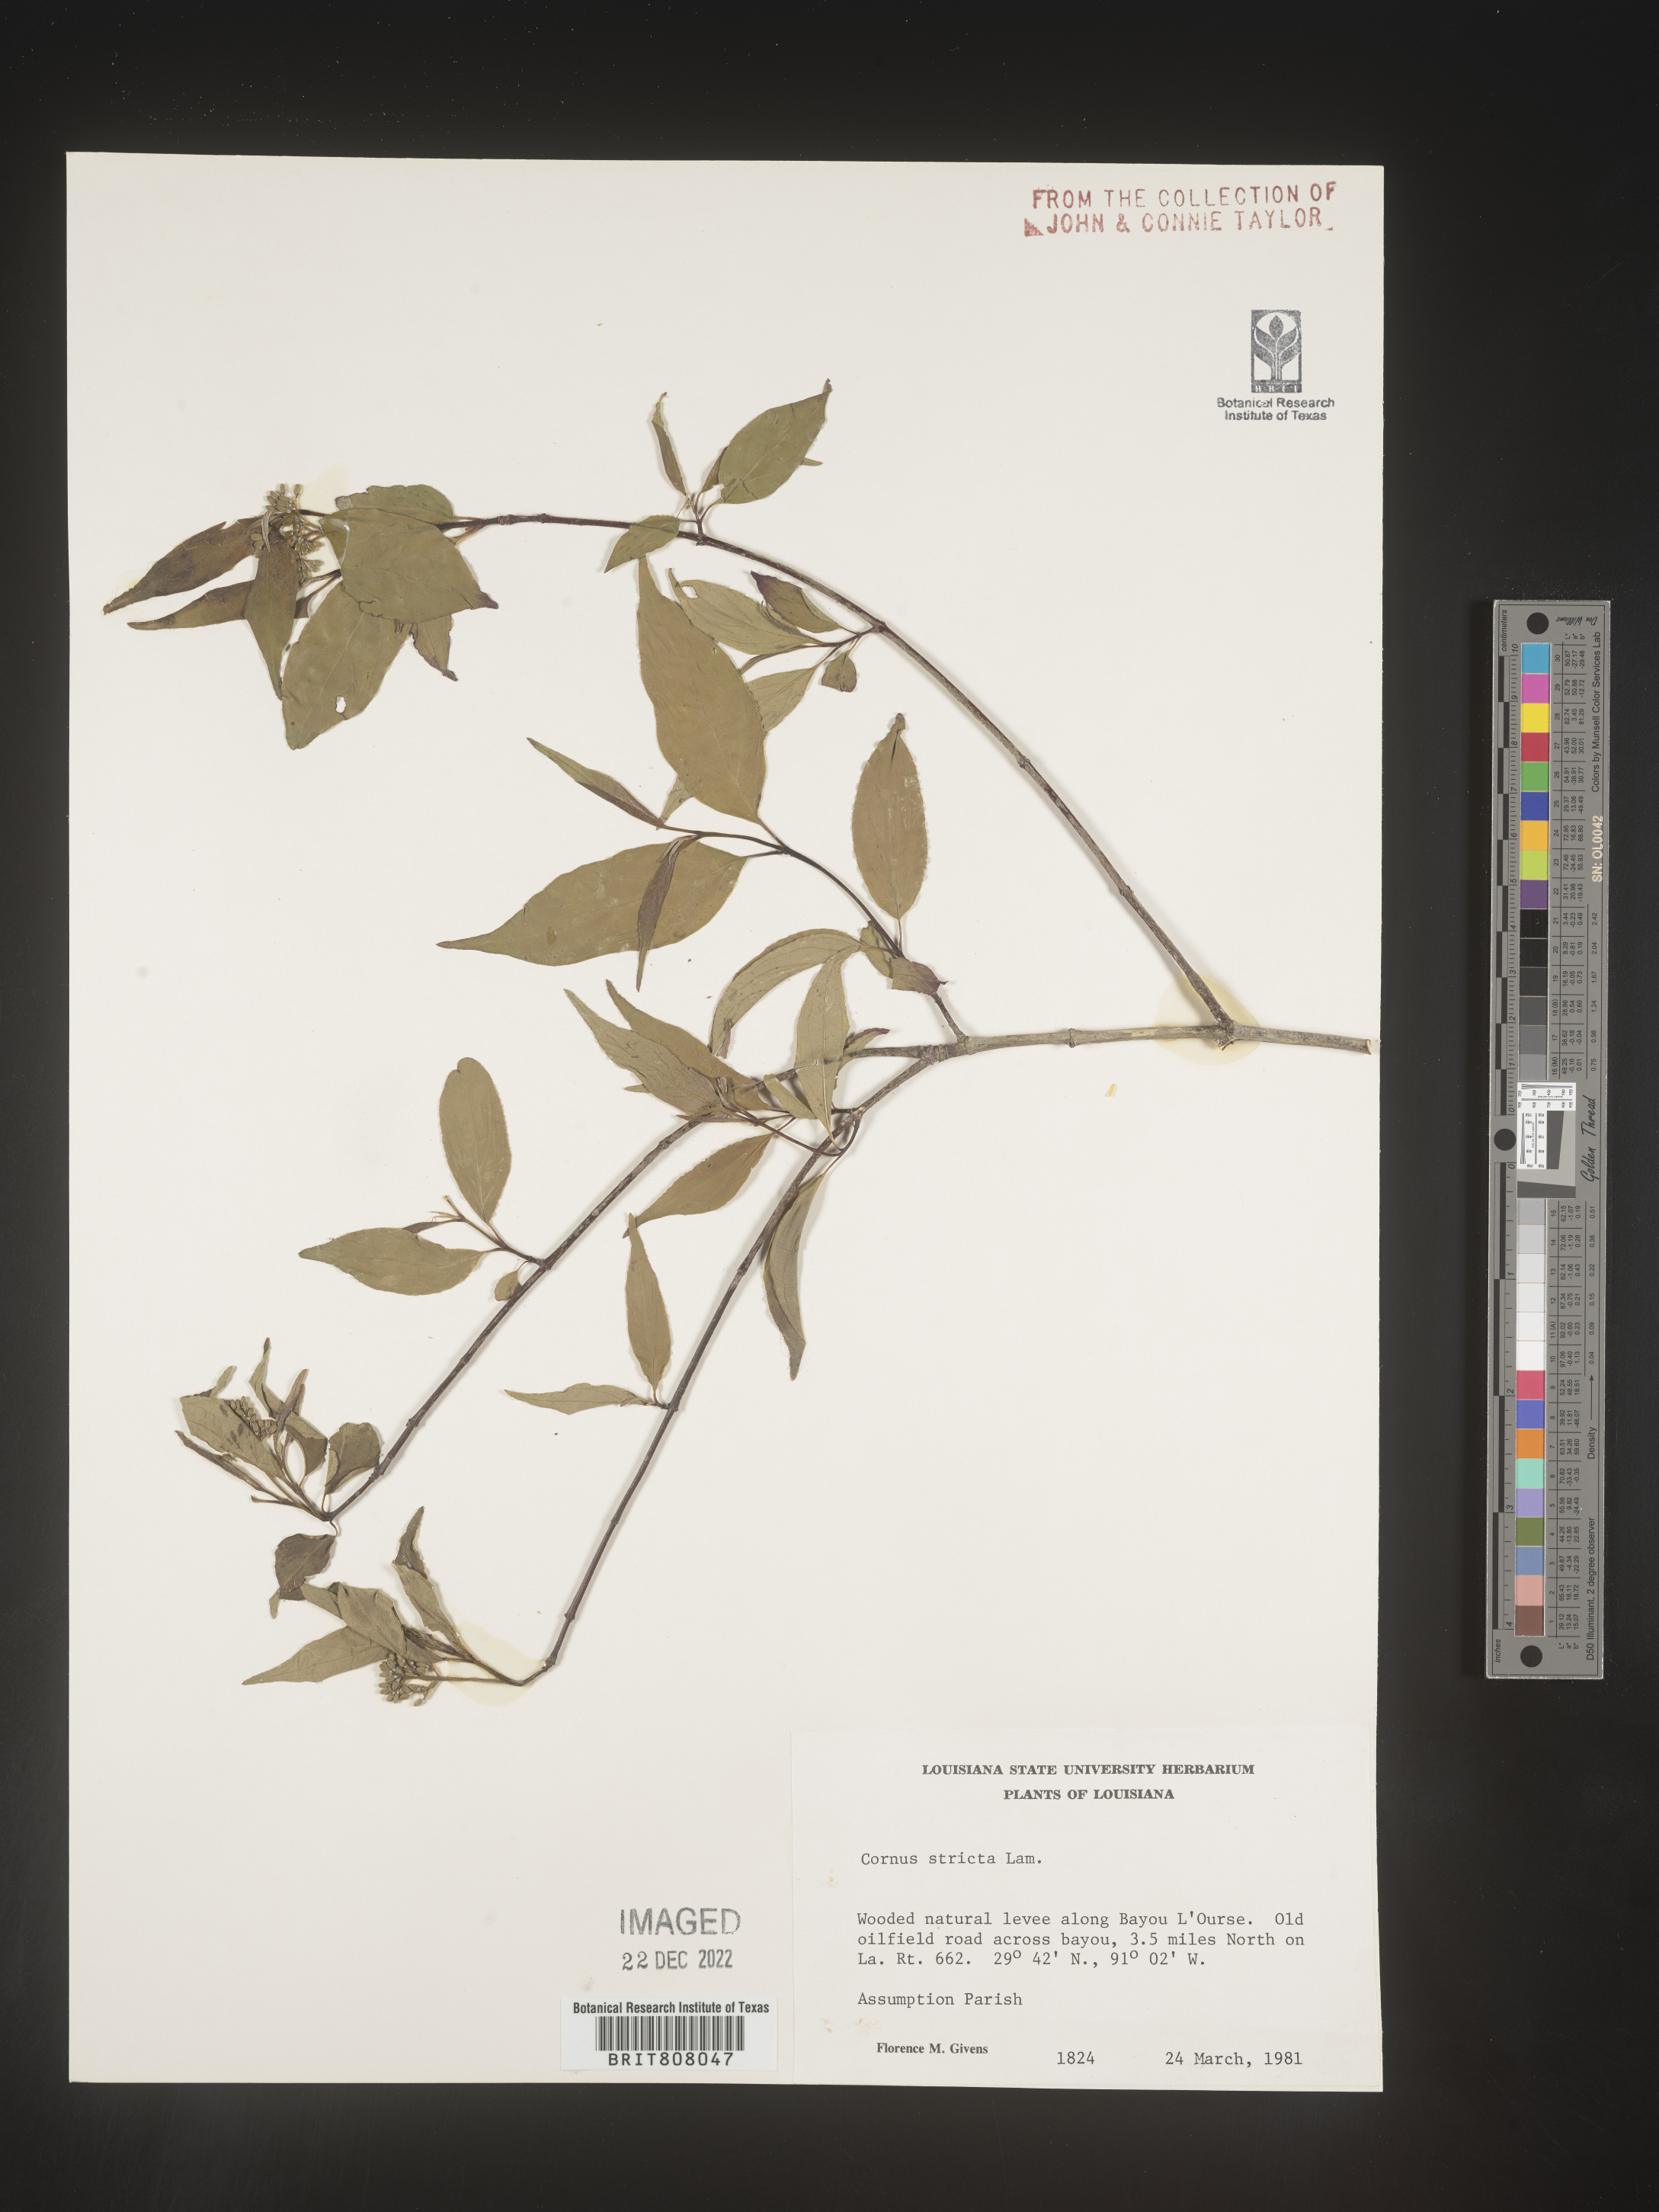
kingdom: Plantae
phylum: Tracheophyta
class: Magnoliopsida
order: Cornales
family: Cornaceae
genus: Cornus
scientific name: Cornus foemina
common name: Swamp dogwood
